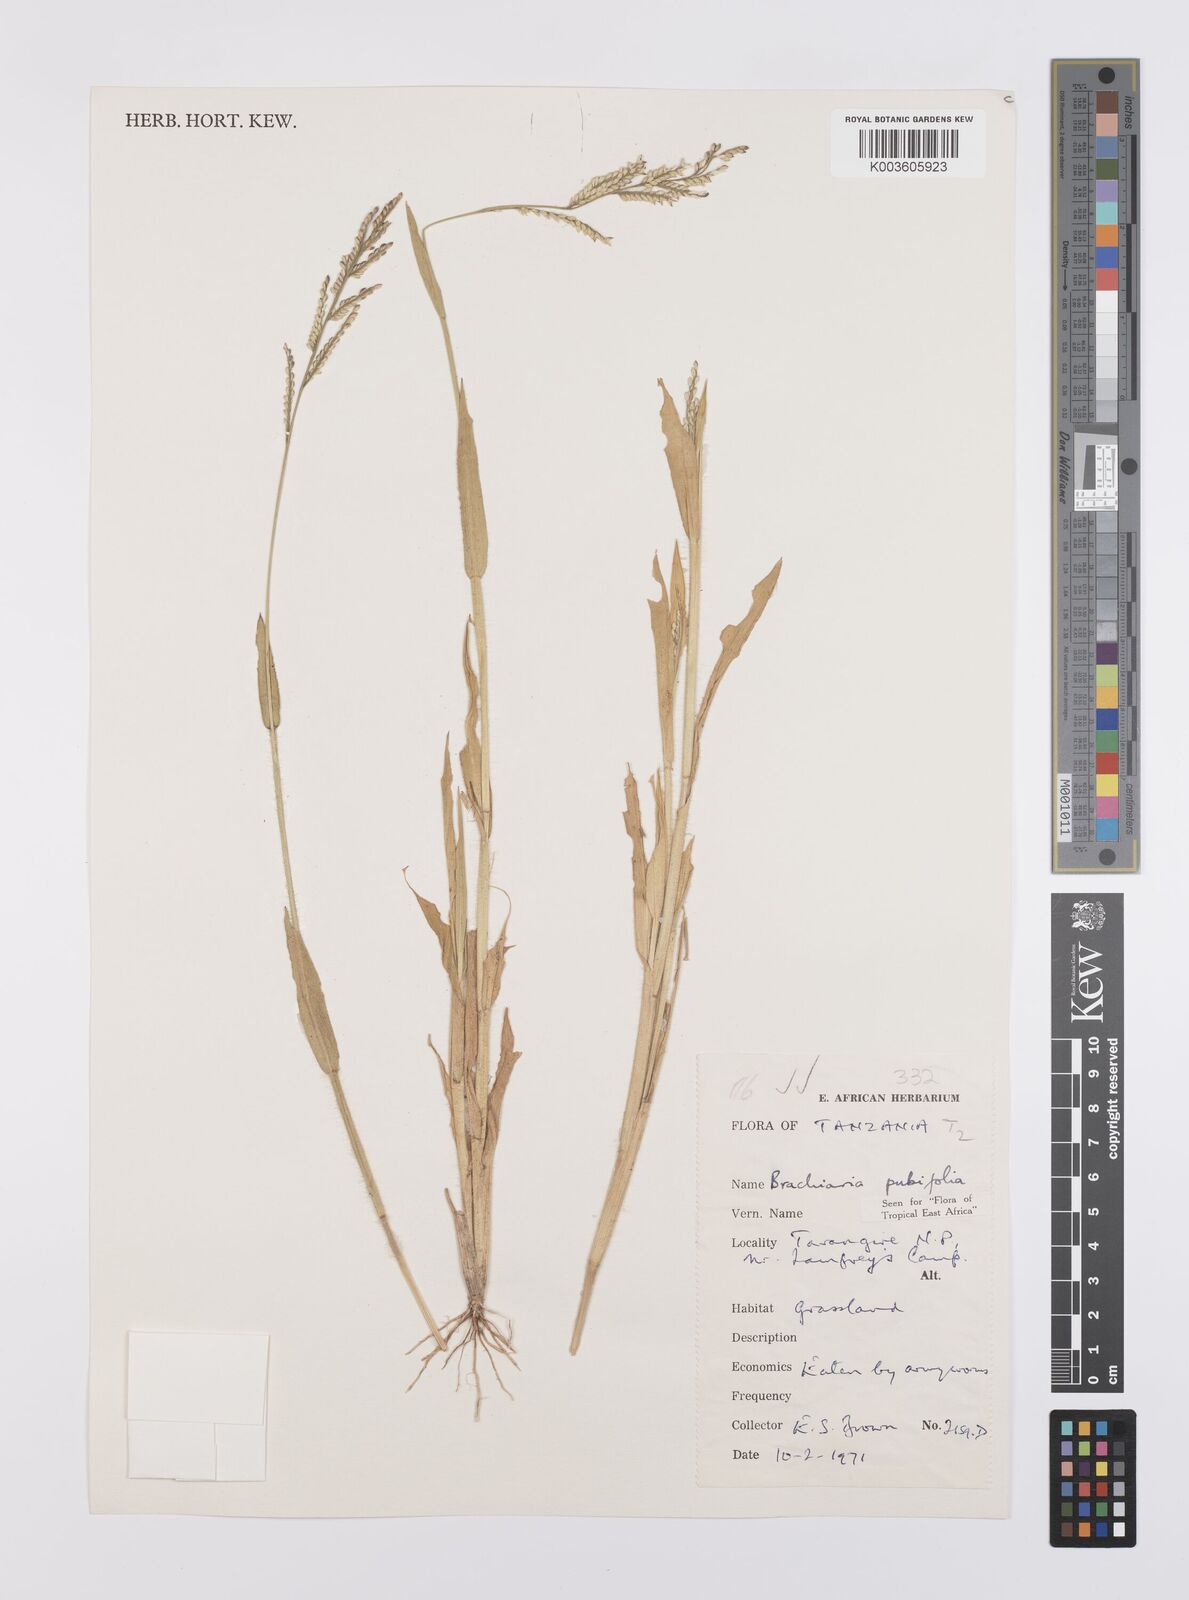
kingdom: Plantae
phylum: Tracheophyta
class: Liliopsida
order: Poales
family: Poaceae
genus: Urochloa
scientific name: Urochloa xantholeuca
